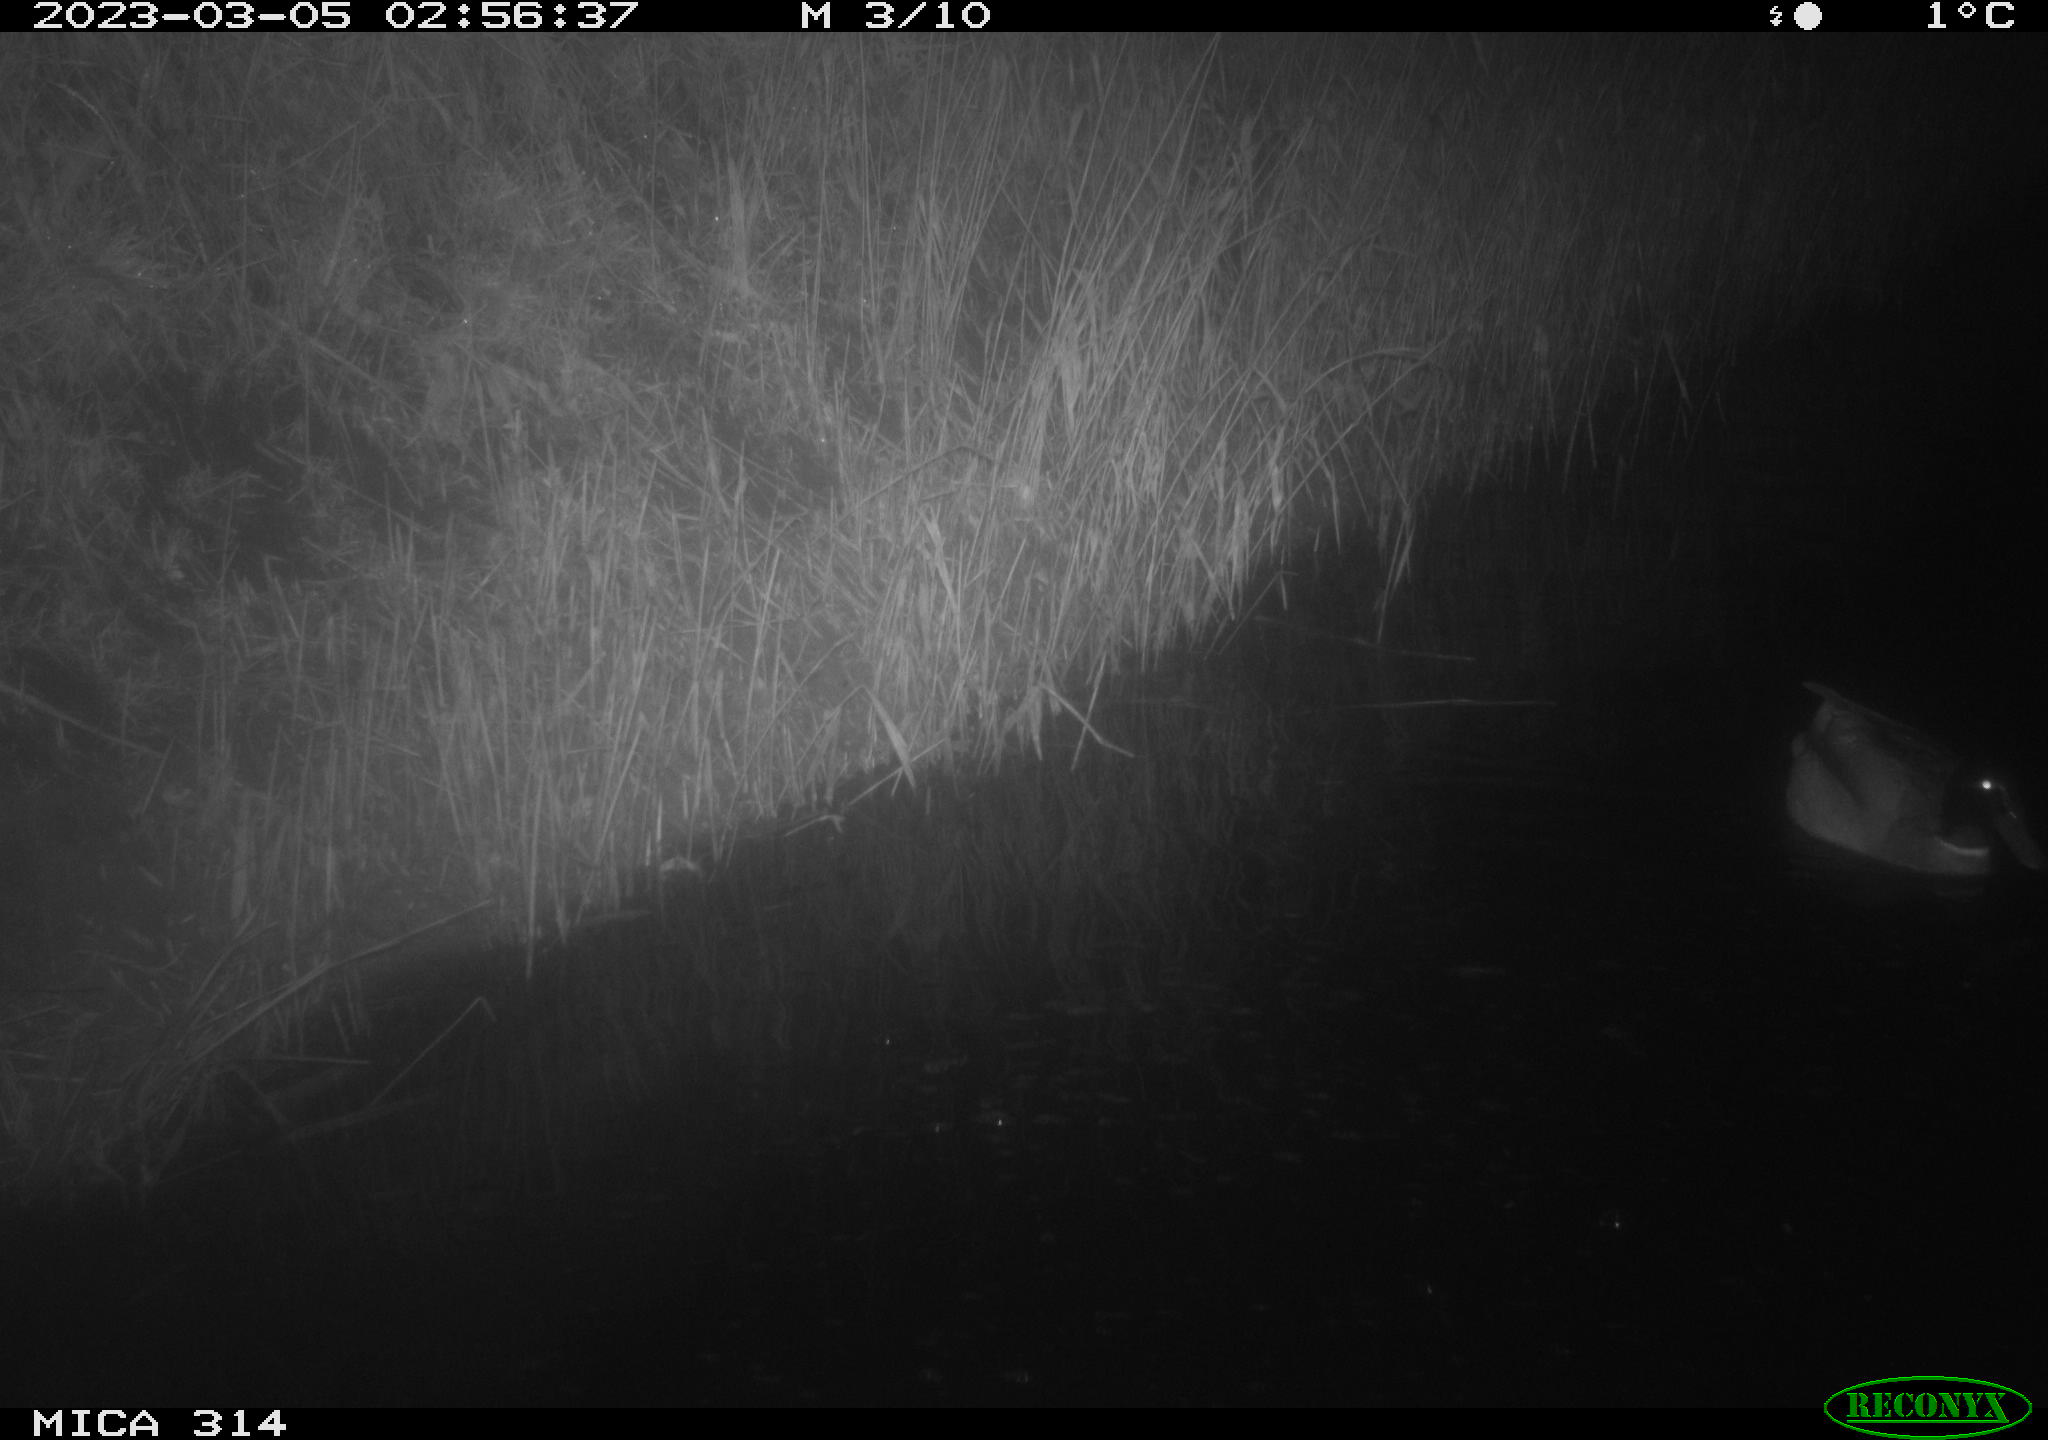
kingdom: Animalia
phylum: Chordata
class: Aves
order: Anseriformes
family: Anatidae
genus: Anas
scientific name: Anas
